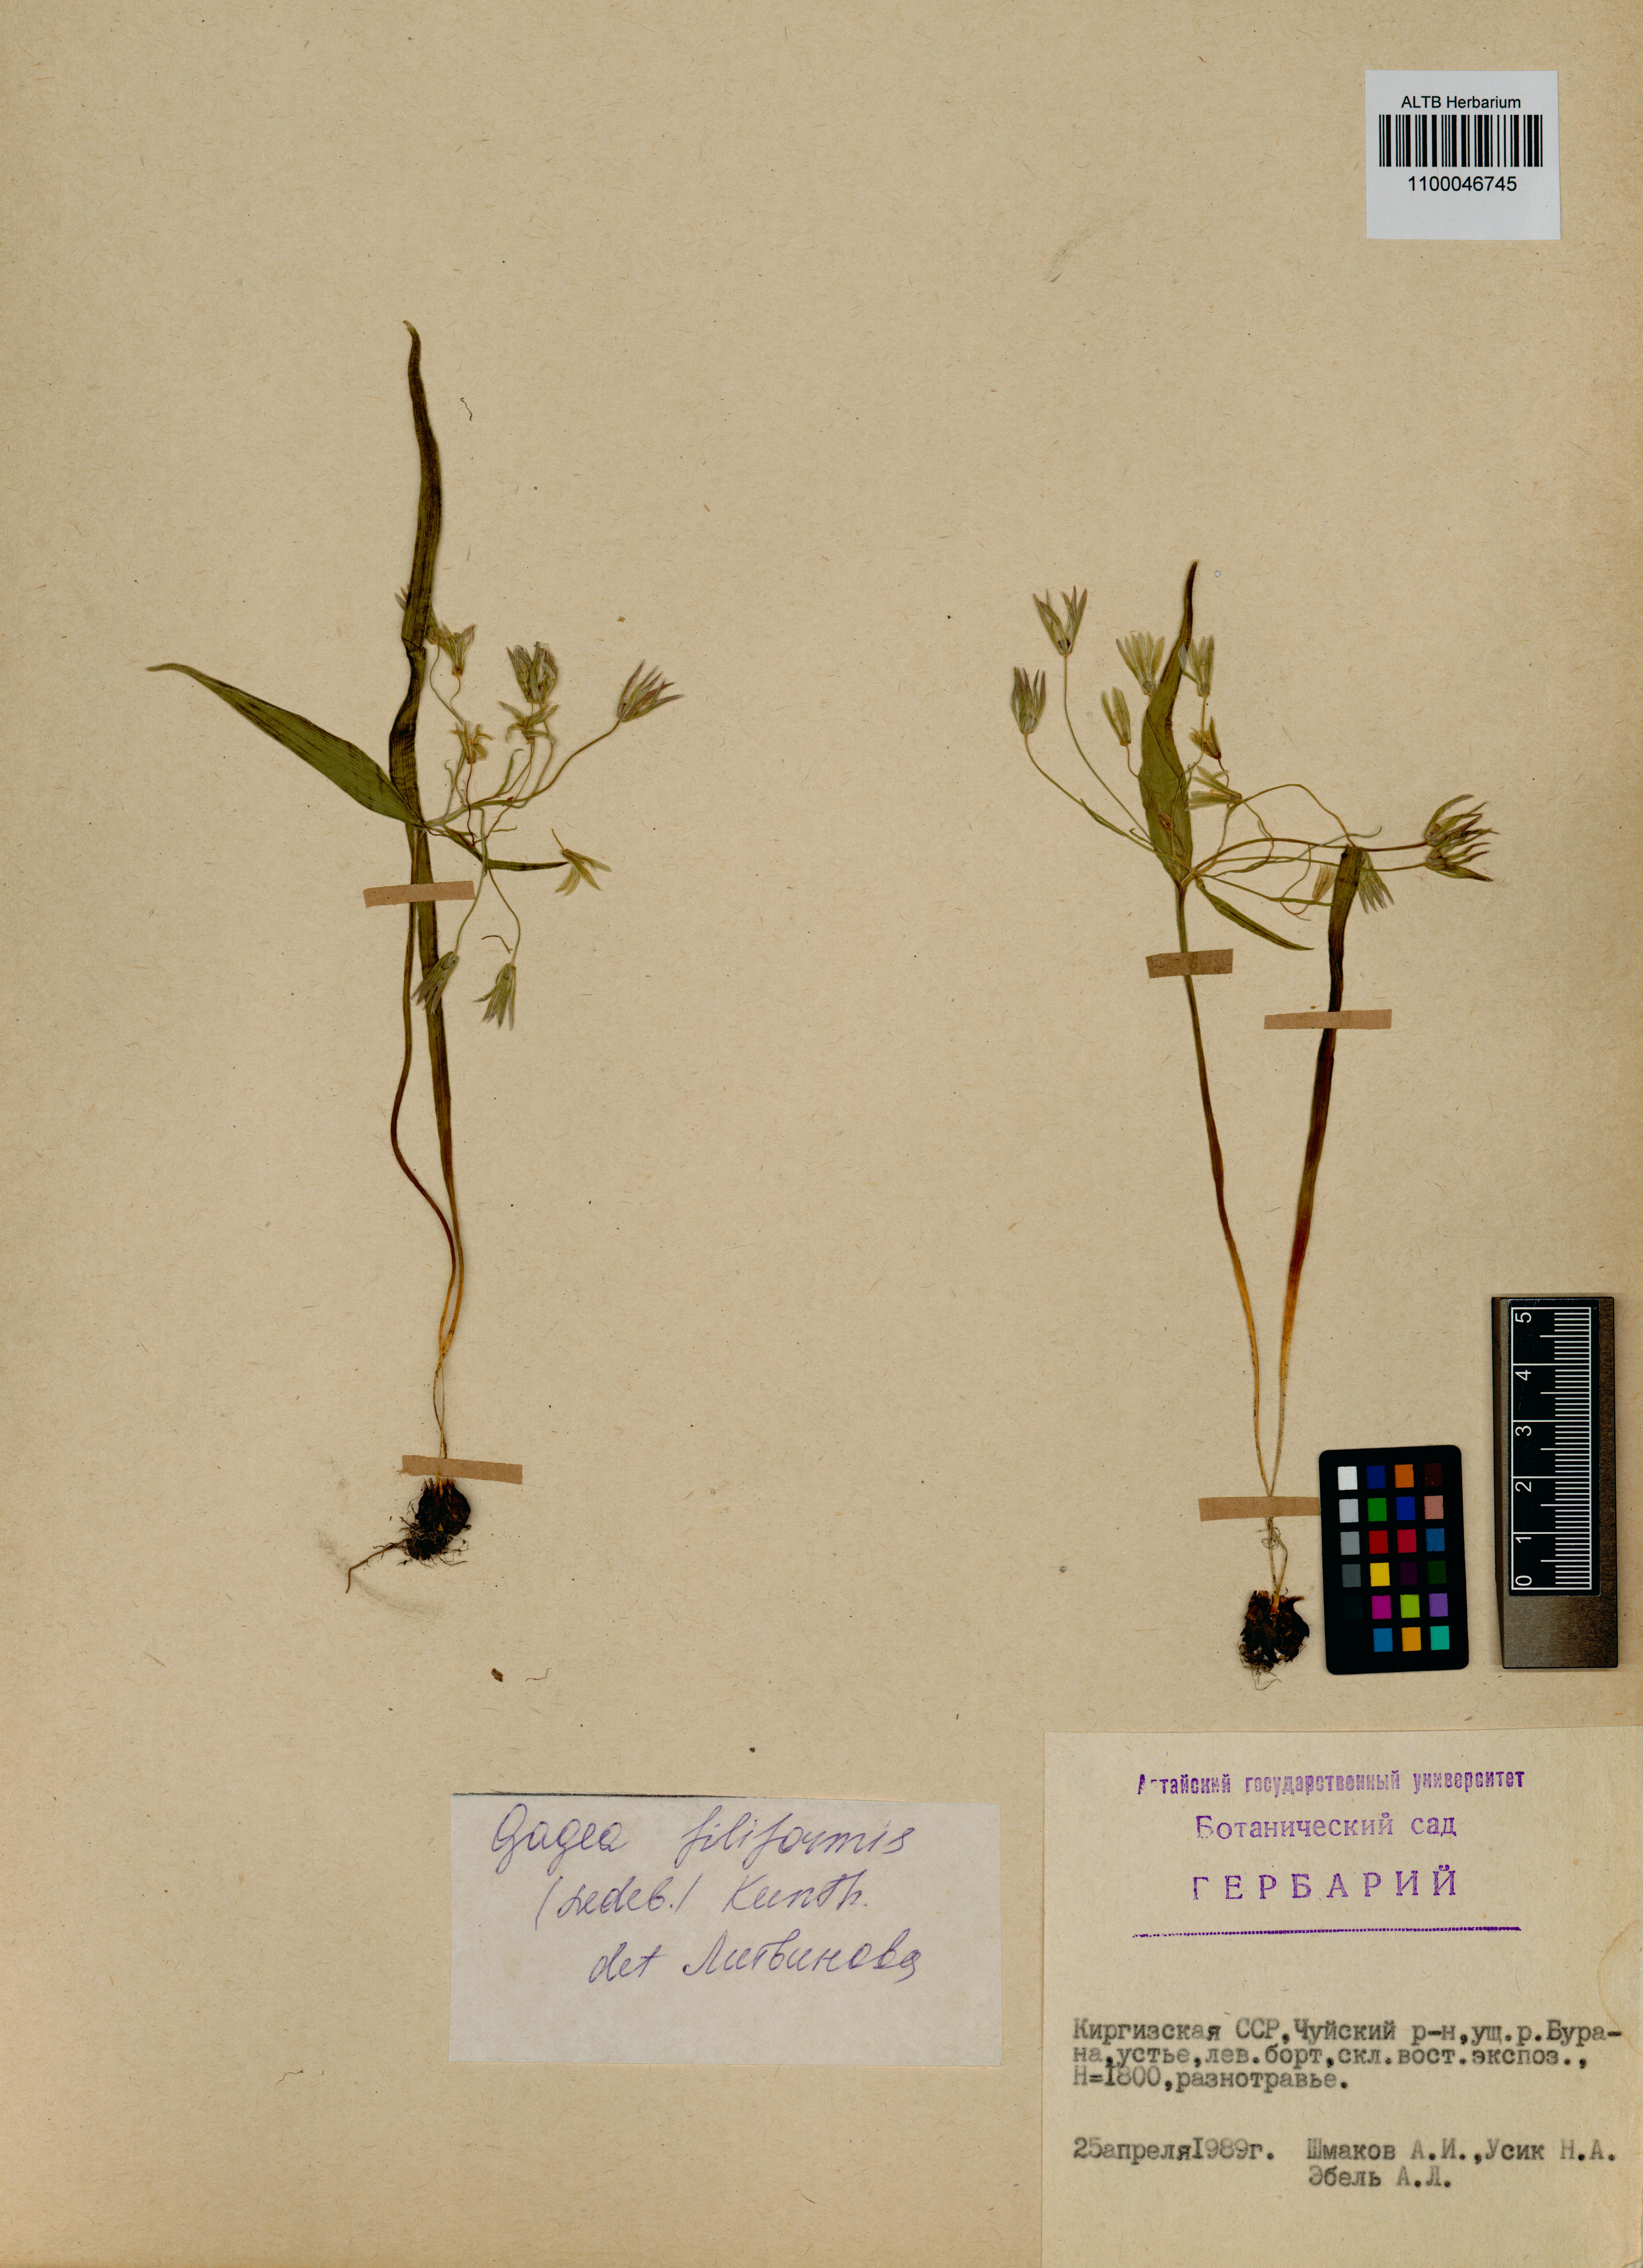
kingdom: Plantae
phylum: Tracheophyta
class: Liliopsida
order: Liliales
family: Liliaceae
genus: Gagea
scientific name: Gagea filiformis
